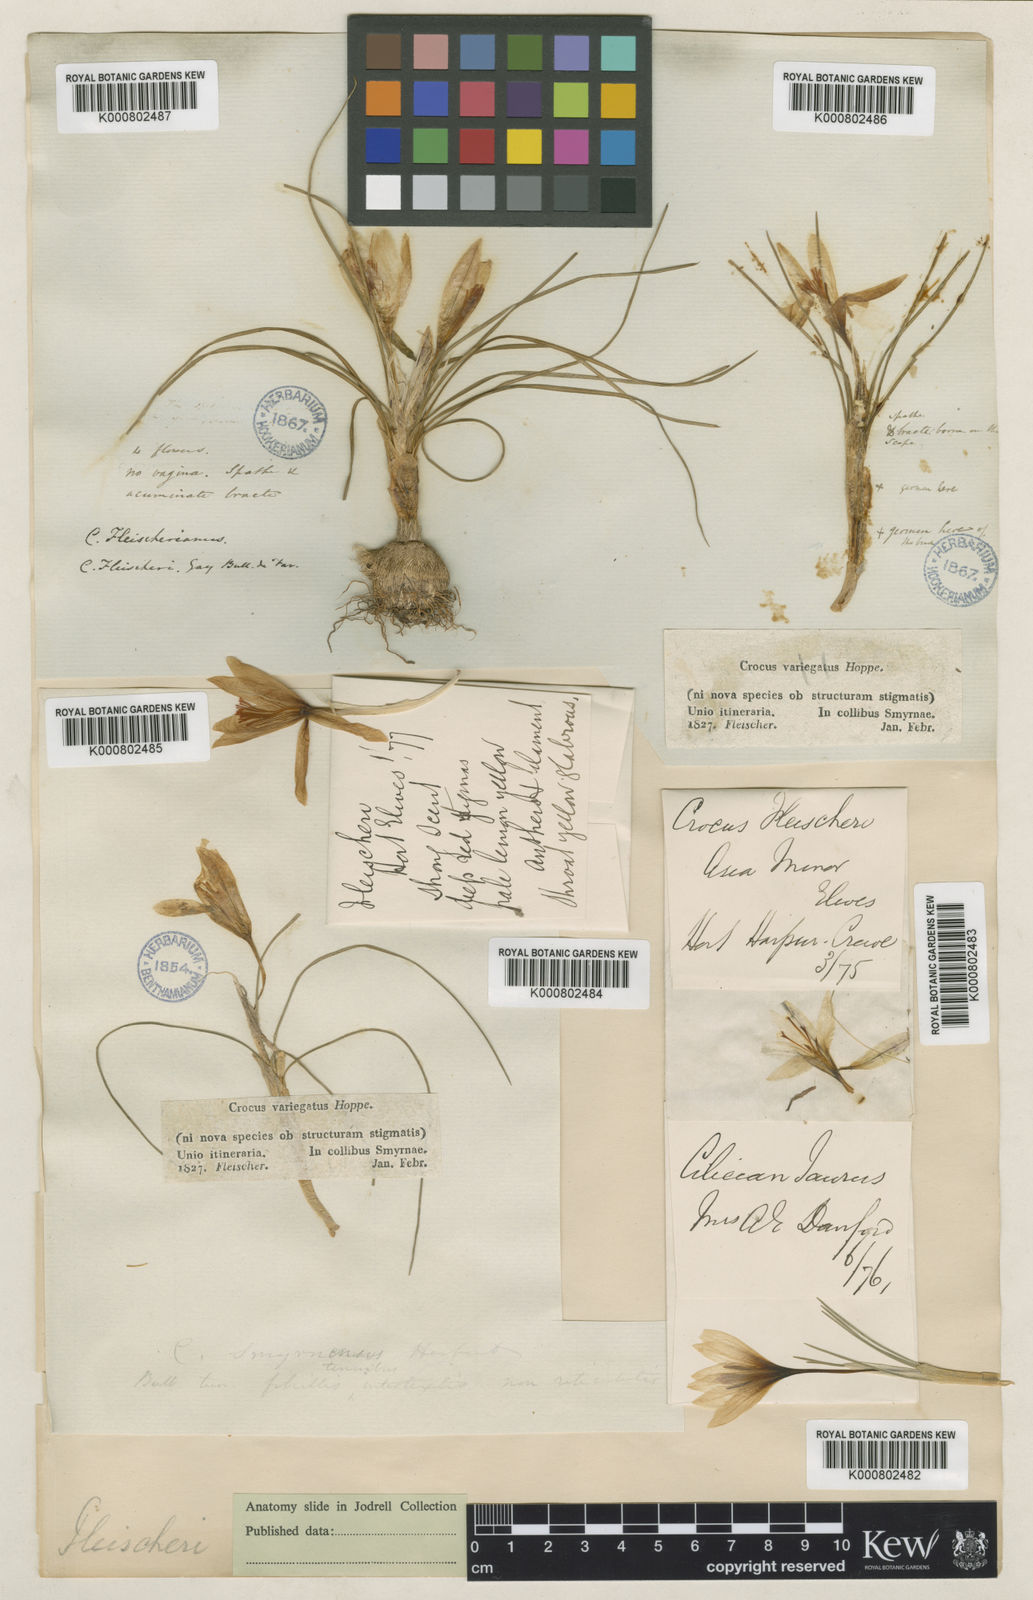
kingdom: Plantae
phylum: Tracheophyta
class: Liliopsida
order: Asparagales
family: Iridaceae
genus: Crocus
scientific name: Crocus fleischeri
